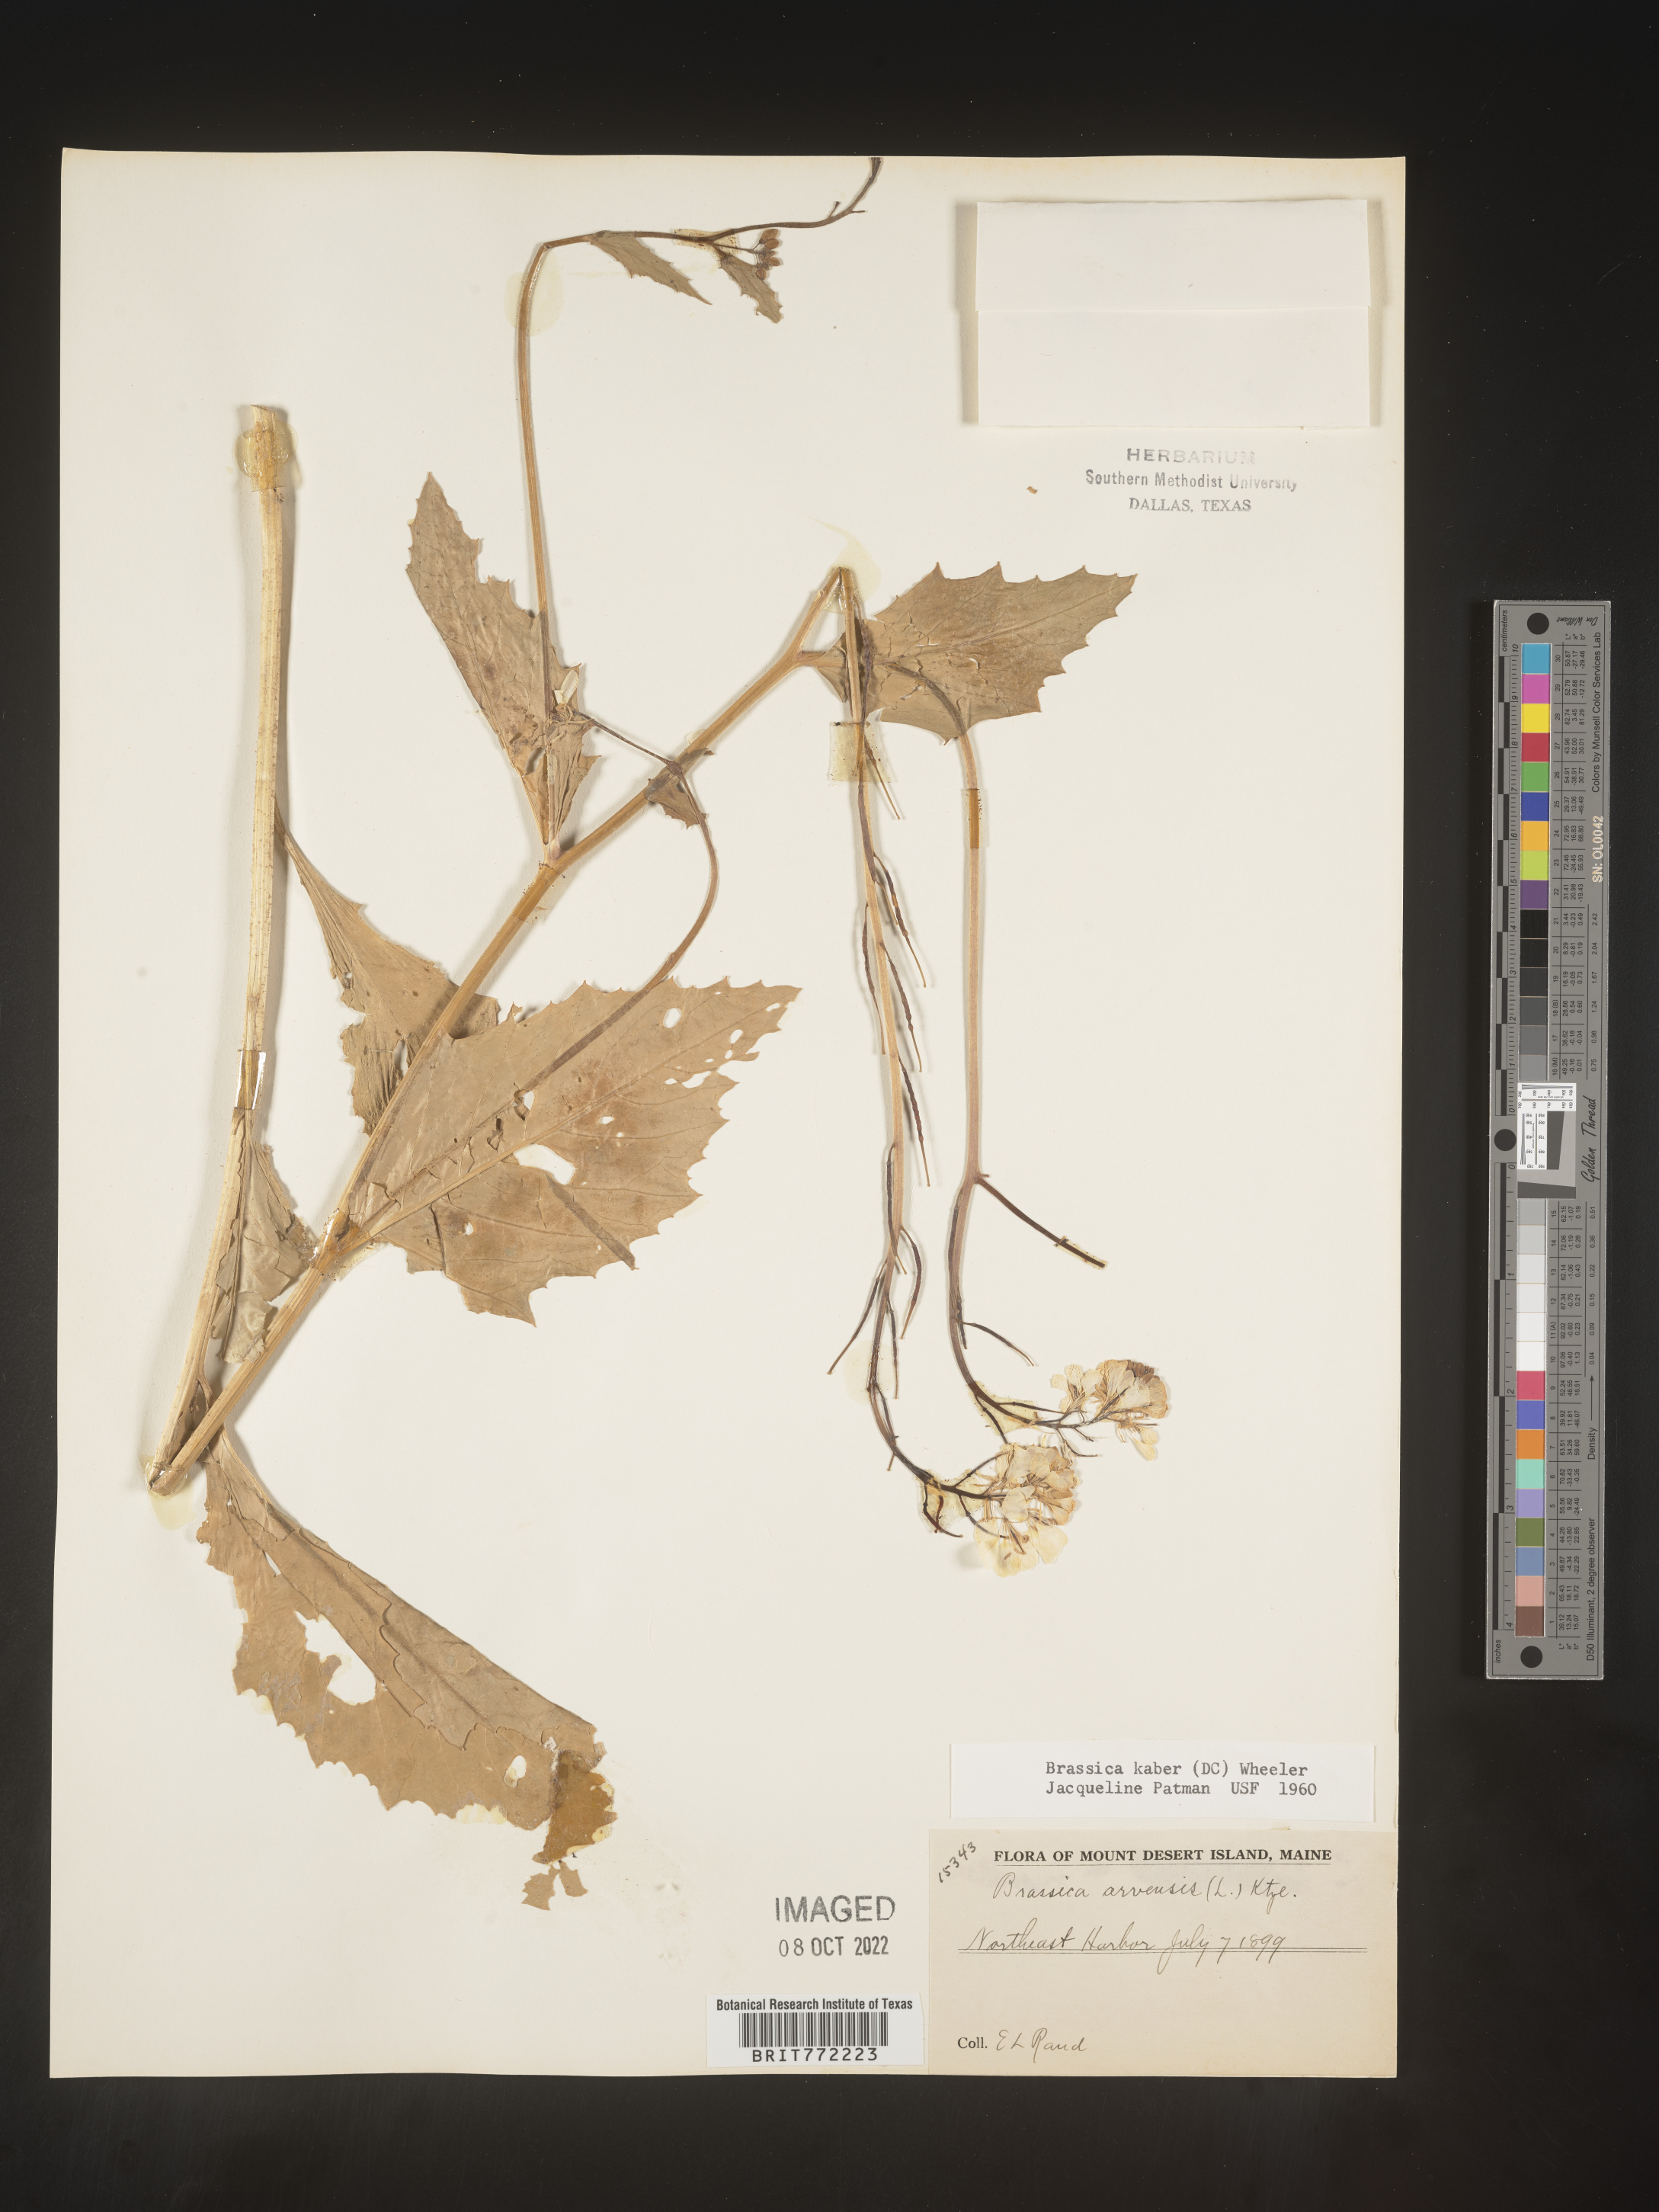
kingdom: Plantae
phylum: Tracheophyta
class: Magnoliopsida
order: Brassicales
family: Brassicaceae
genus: Sinapis
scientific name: Sinapis arvensis
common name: Charlock
